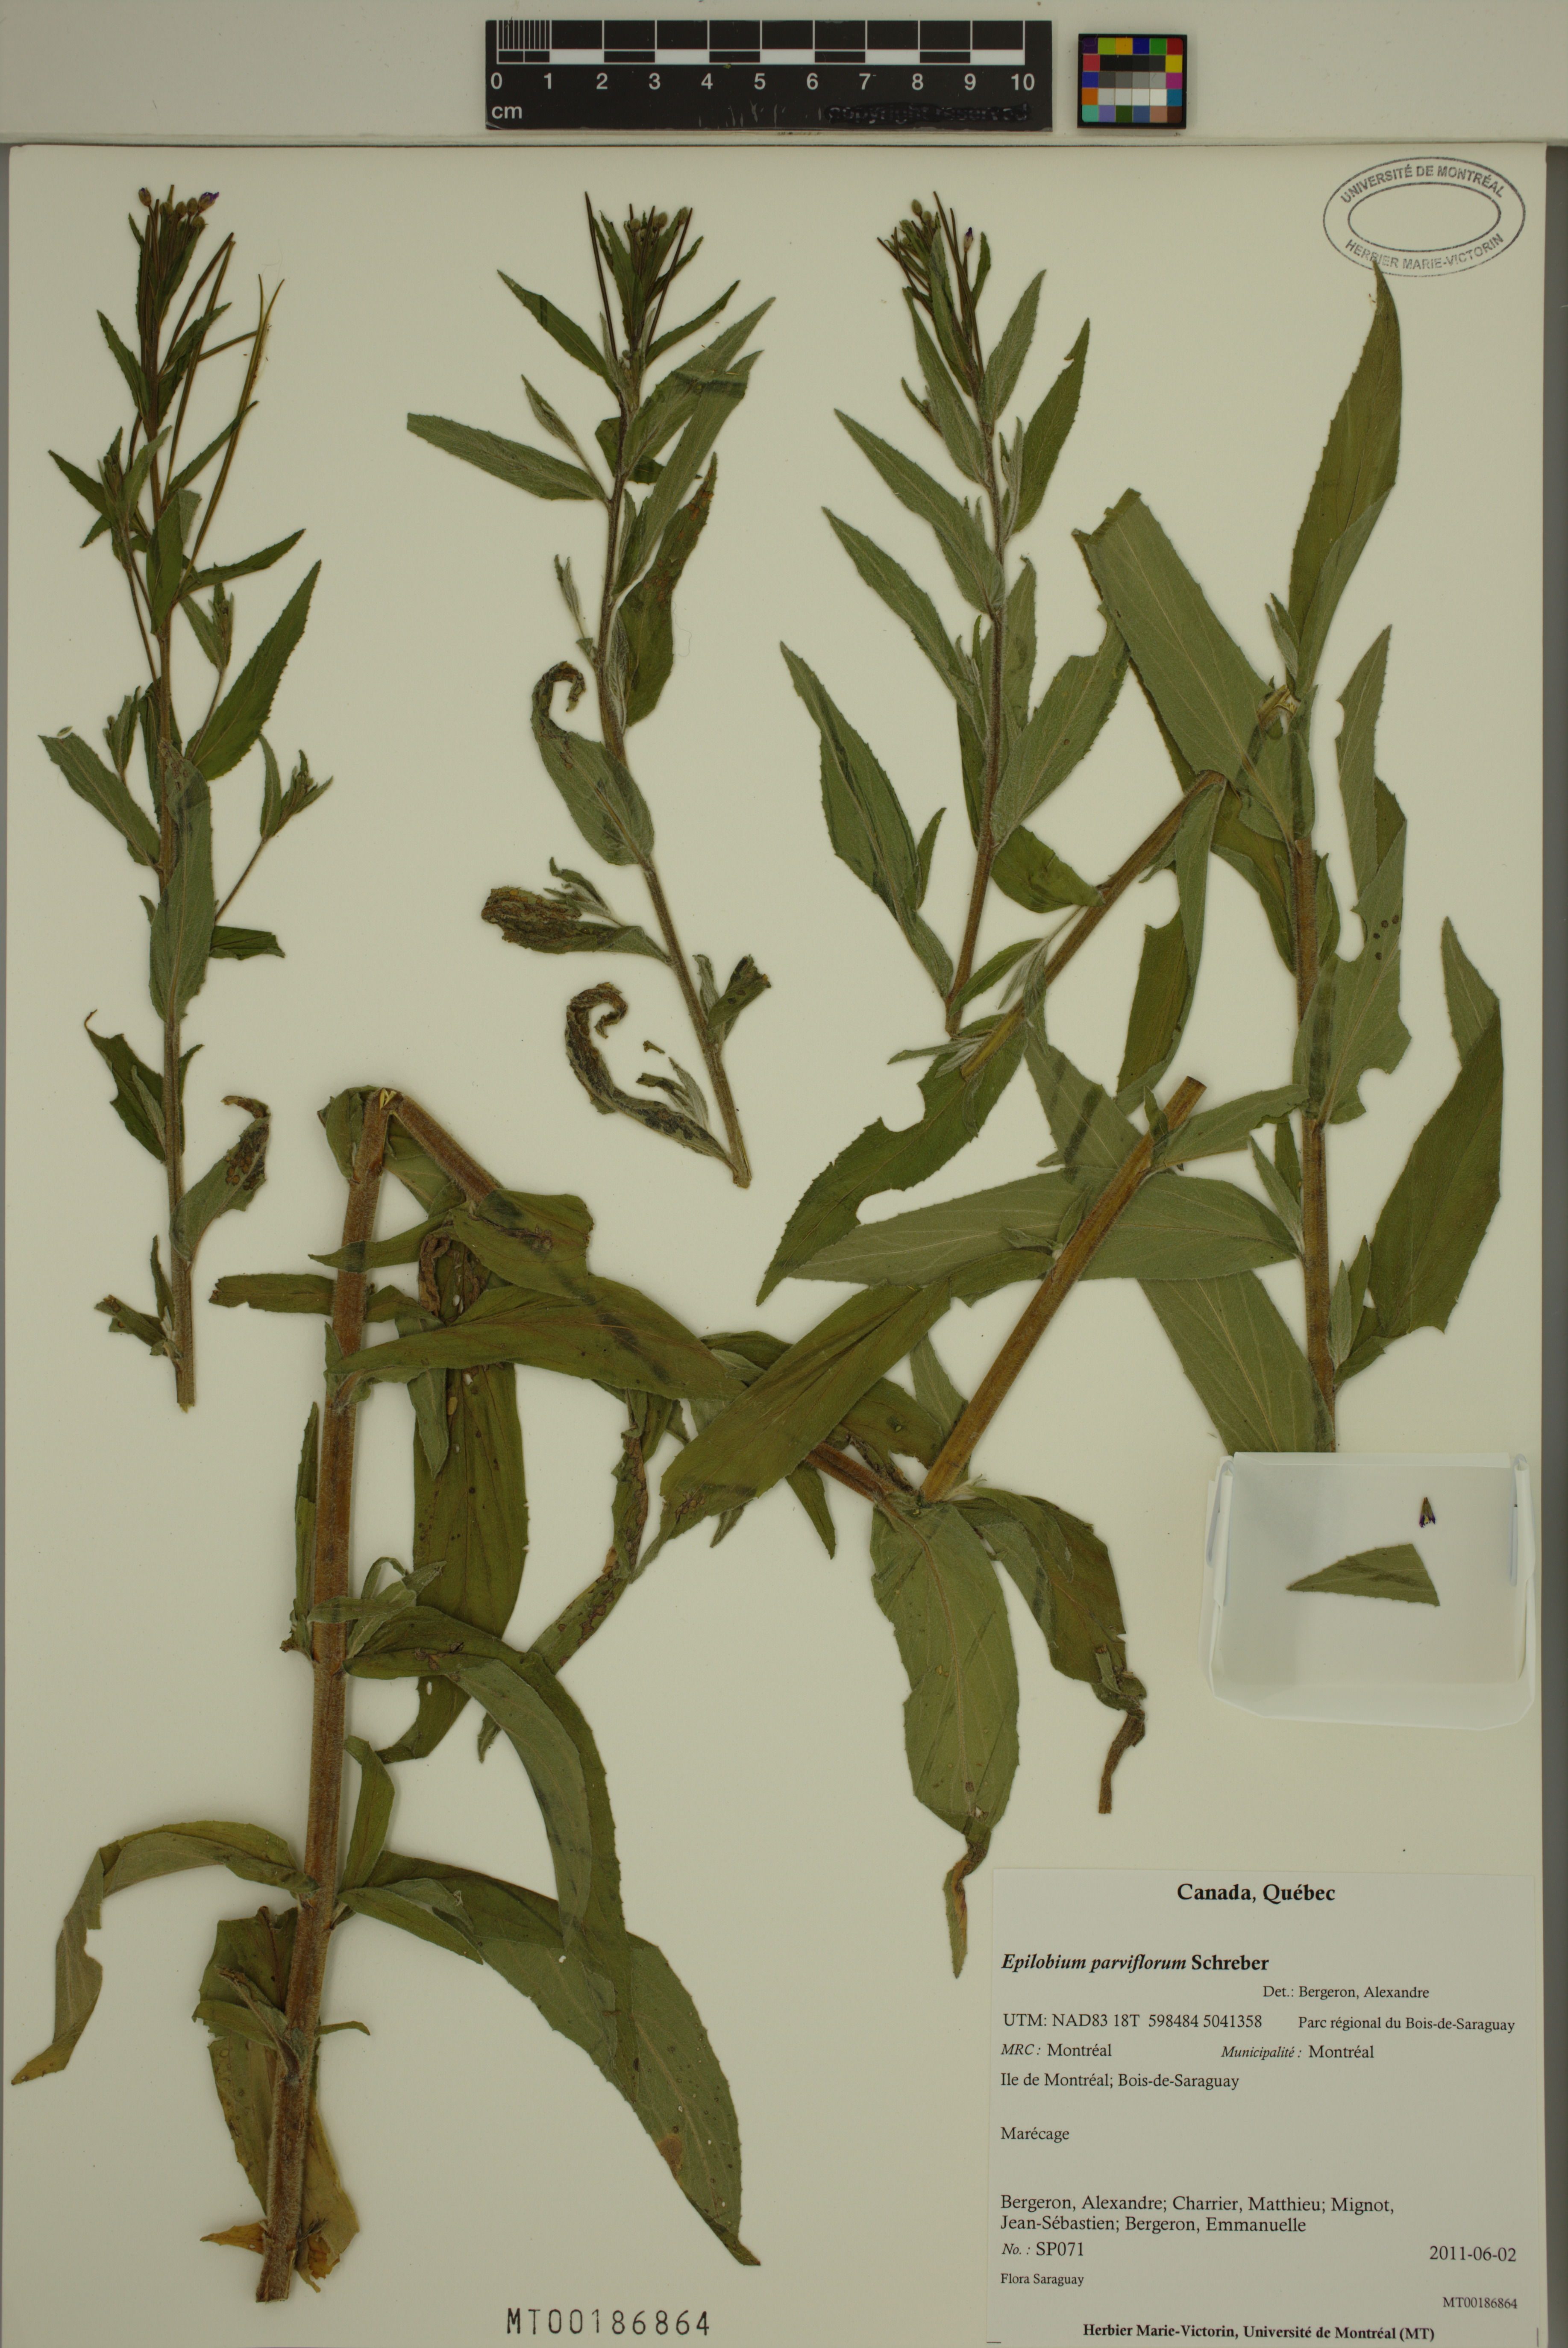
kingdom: Plantae
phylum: Tracheophyta
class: Magnoliopsida
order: Myrtales
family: Onagraceae
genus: Epilobium
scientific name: Epilobium parviflorum
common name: Hoary willowherb
